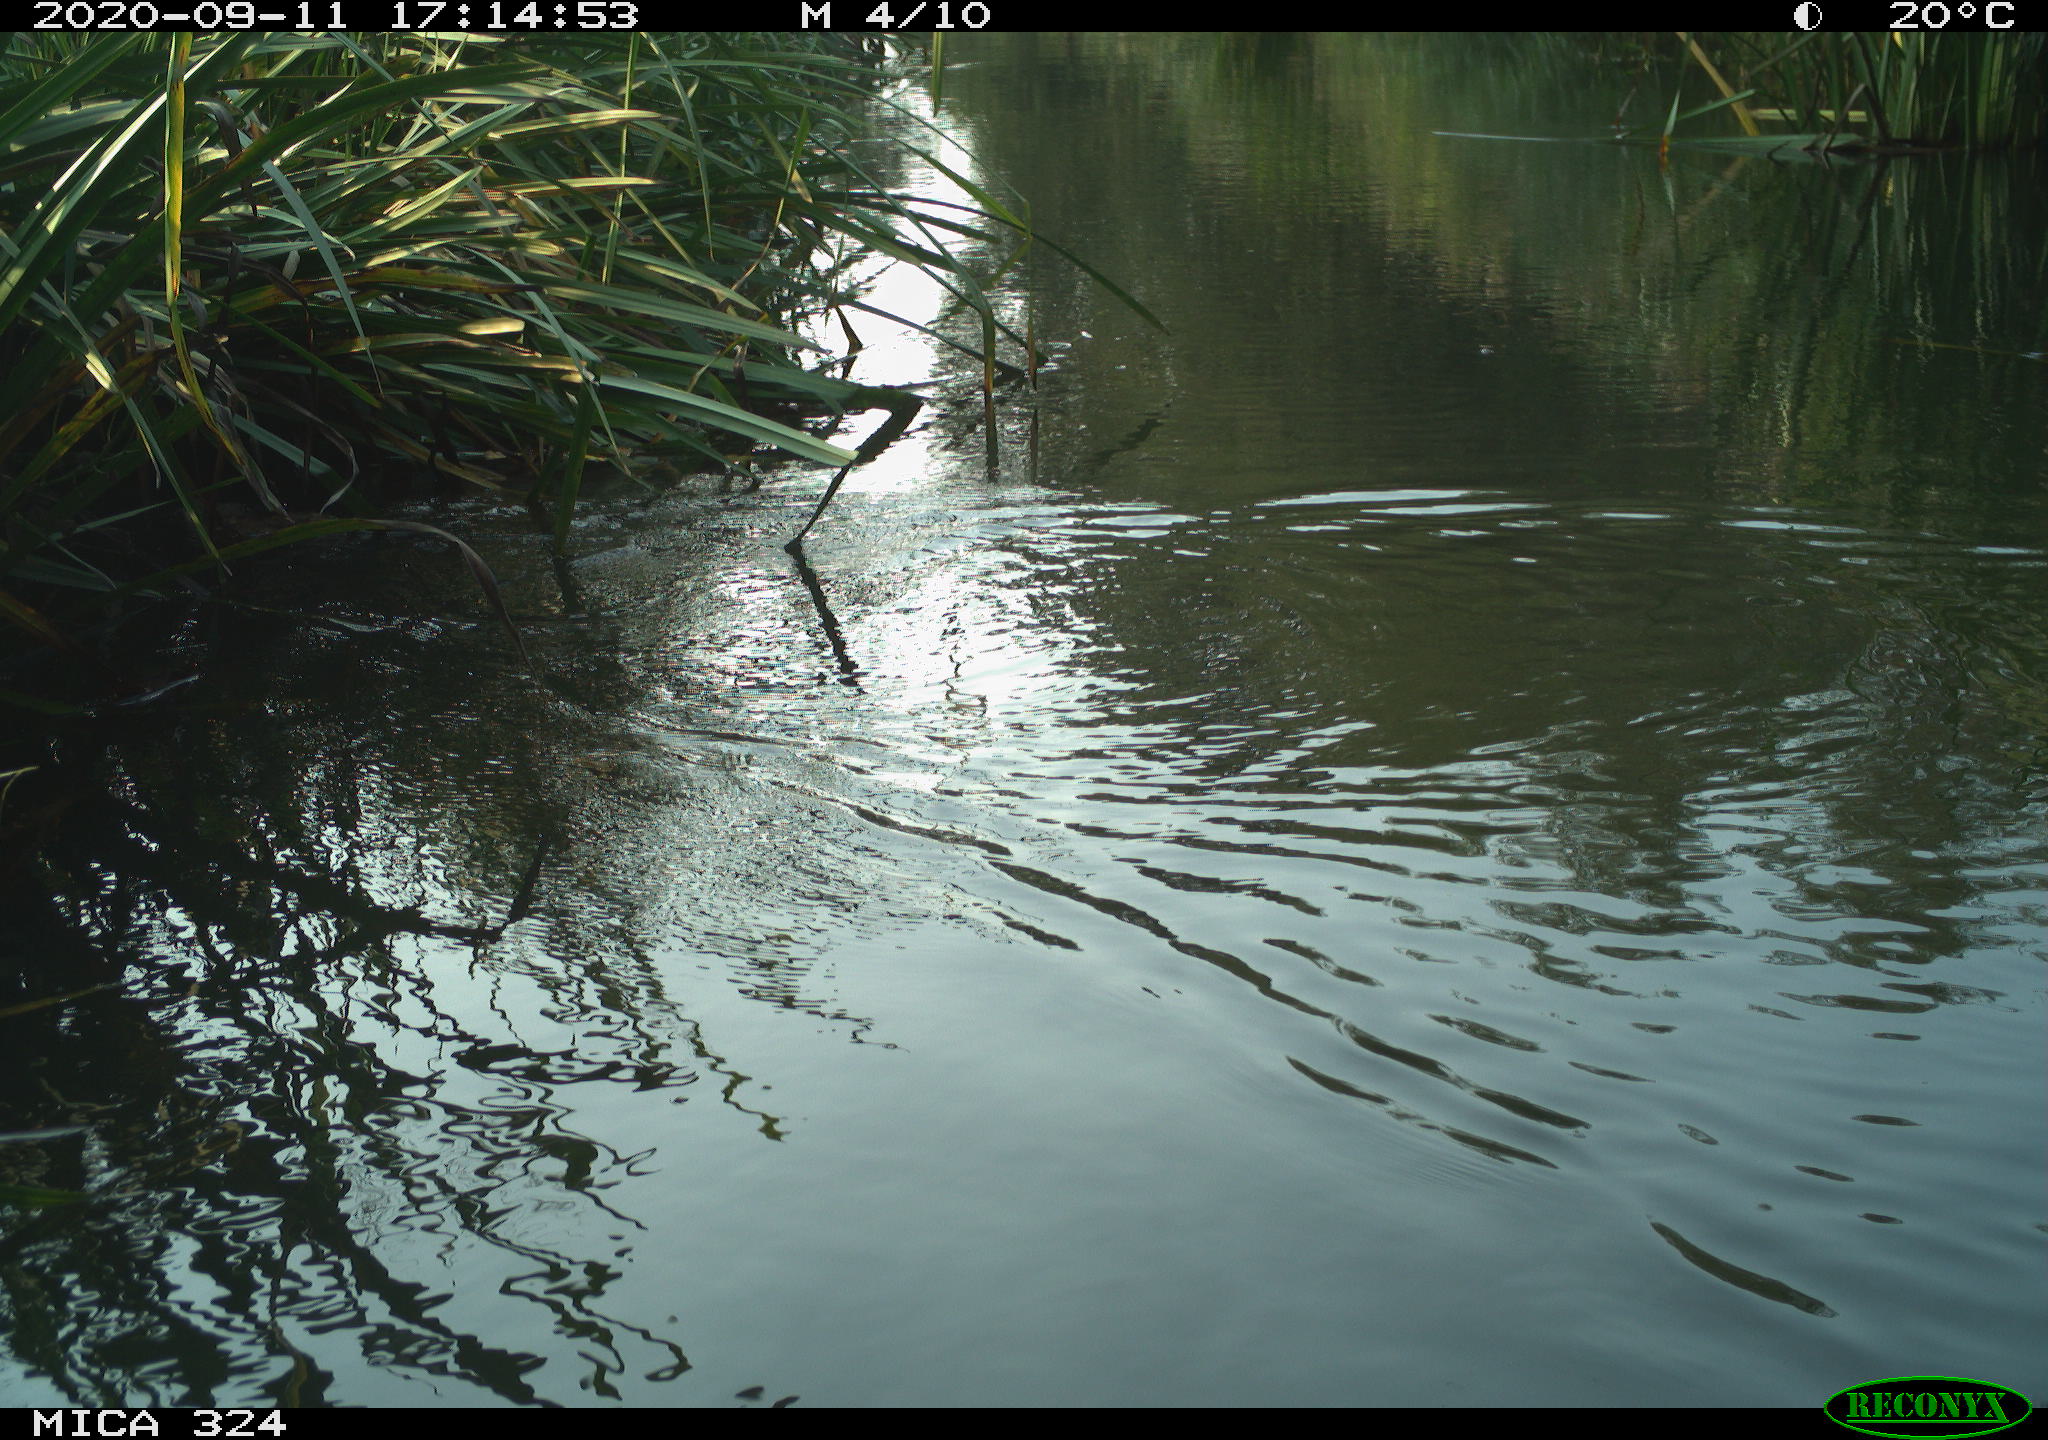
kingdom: Animalia
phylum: Chordata
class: Mammalia
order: Rodentia
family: Cricetidae
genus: Ondatra
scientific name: Ondatra zibethicus
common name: Muskrat
